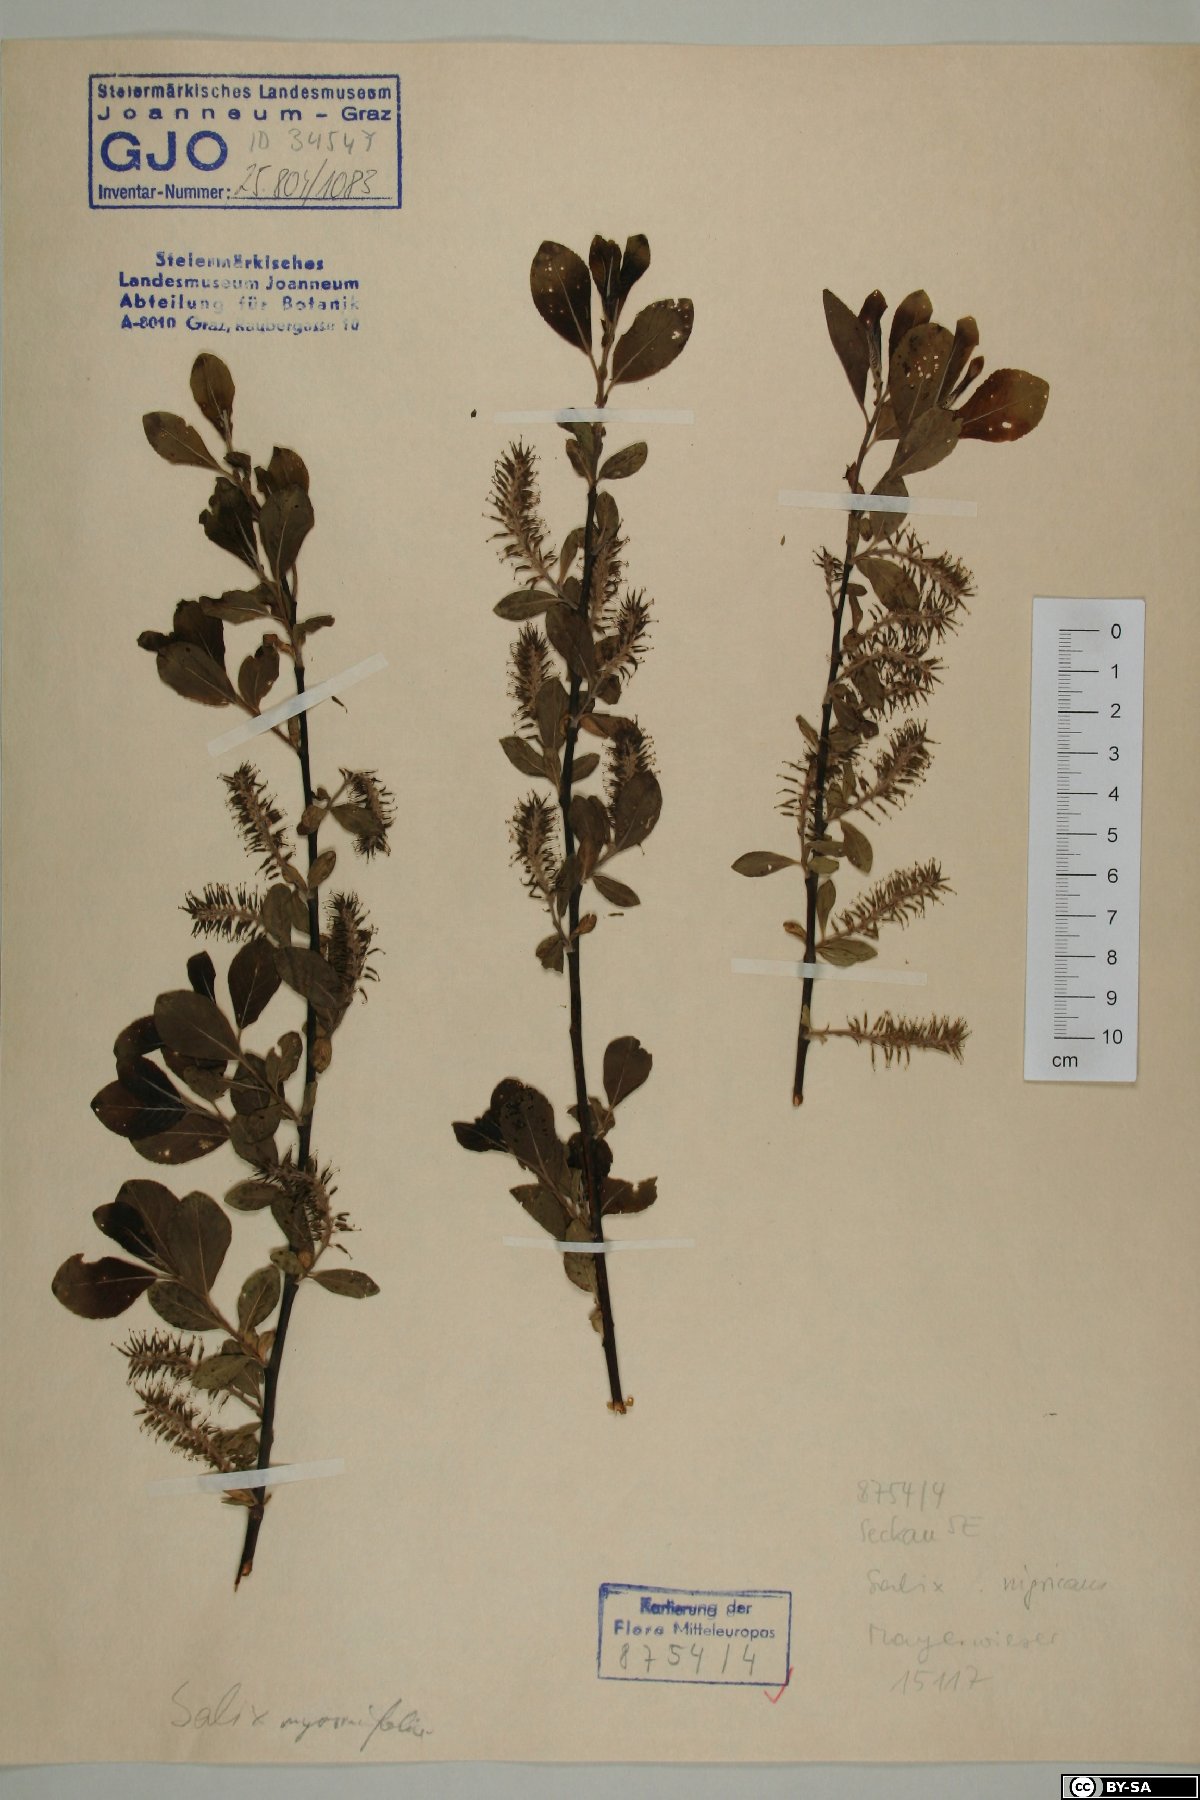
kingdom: Plantae
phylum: Tracheophyta
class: Magnoliopsida
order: Malpighiales
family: Salicaceae
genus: Salix
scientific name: Salix myrsinifolia
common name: Dark-leaved willow
